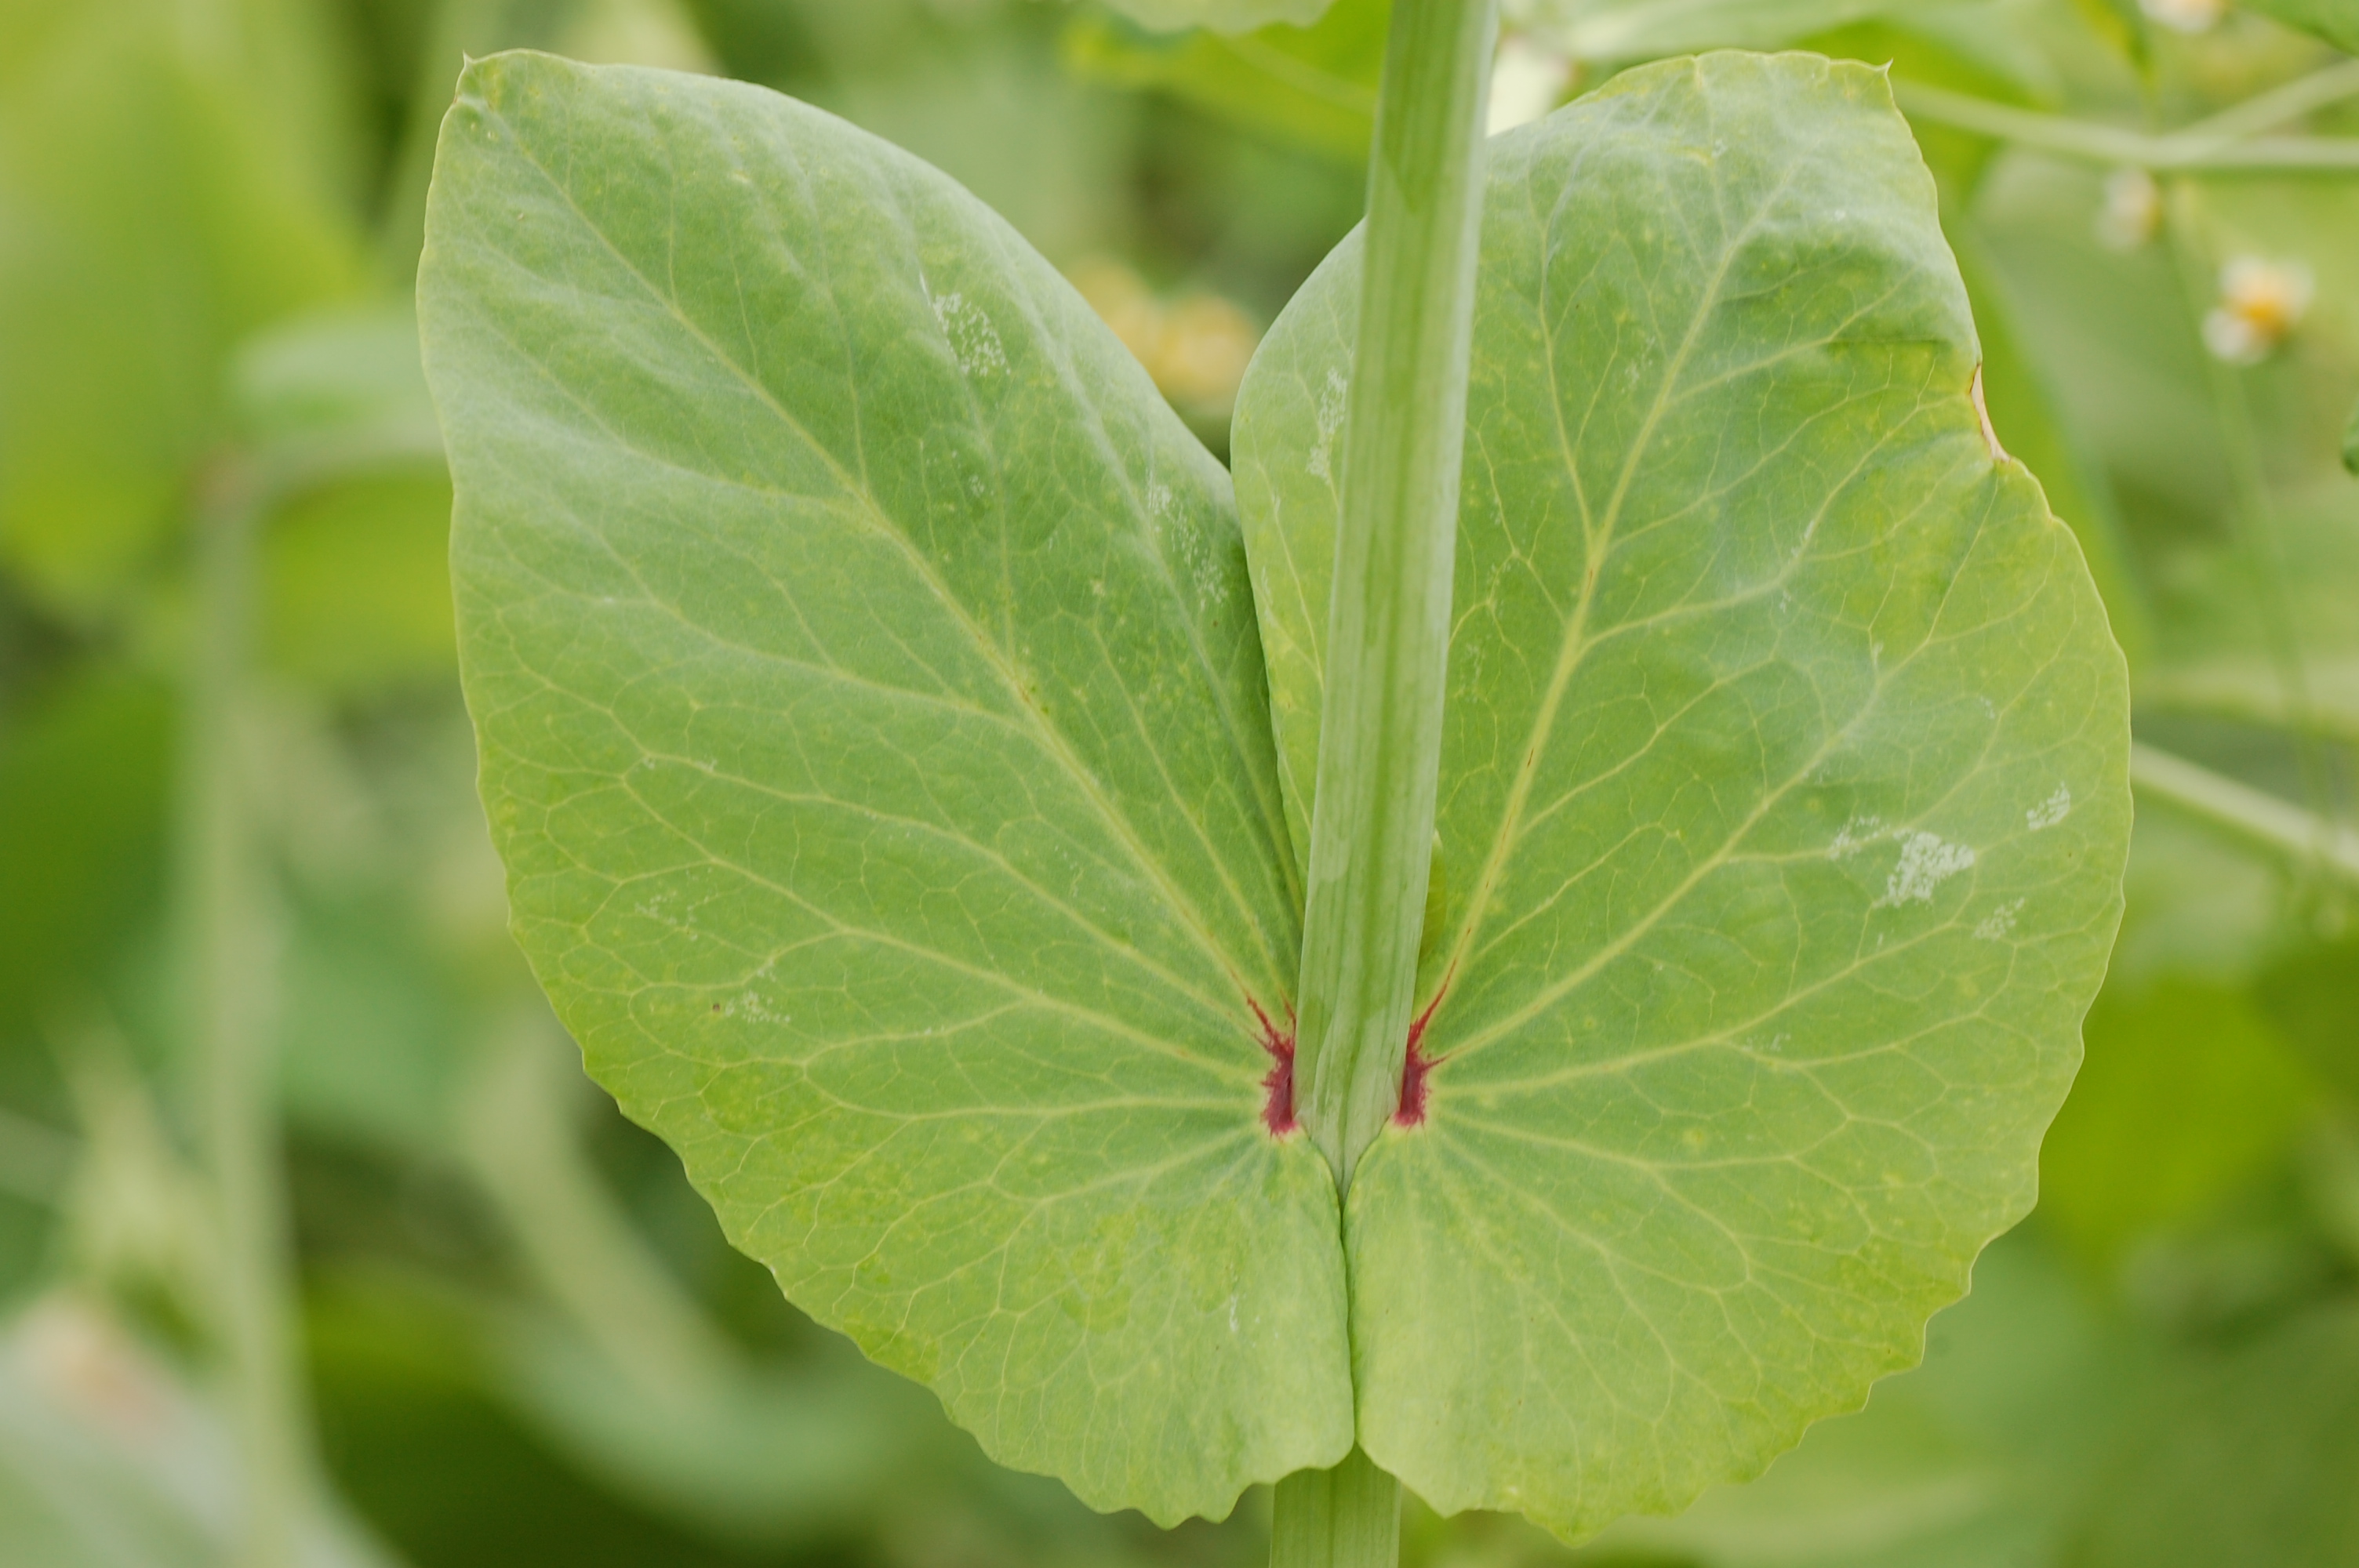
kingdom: Plantae
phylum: Tracheophyta
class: Magnoliopsida
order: Fabales
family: Fabaceae
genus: Lathyrus
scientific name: Lathyrus oleraceus
